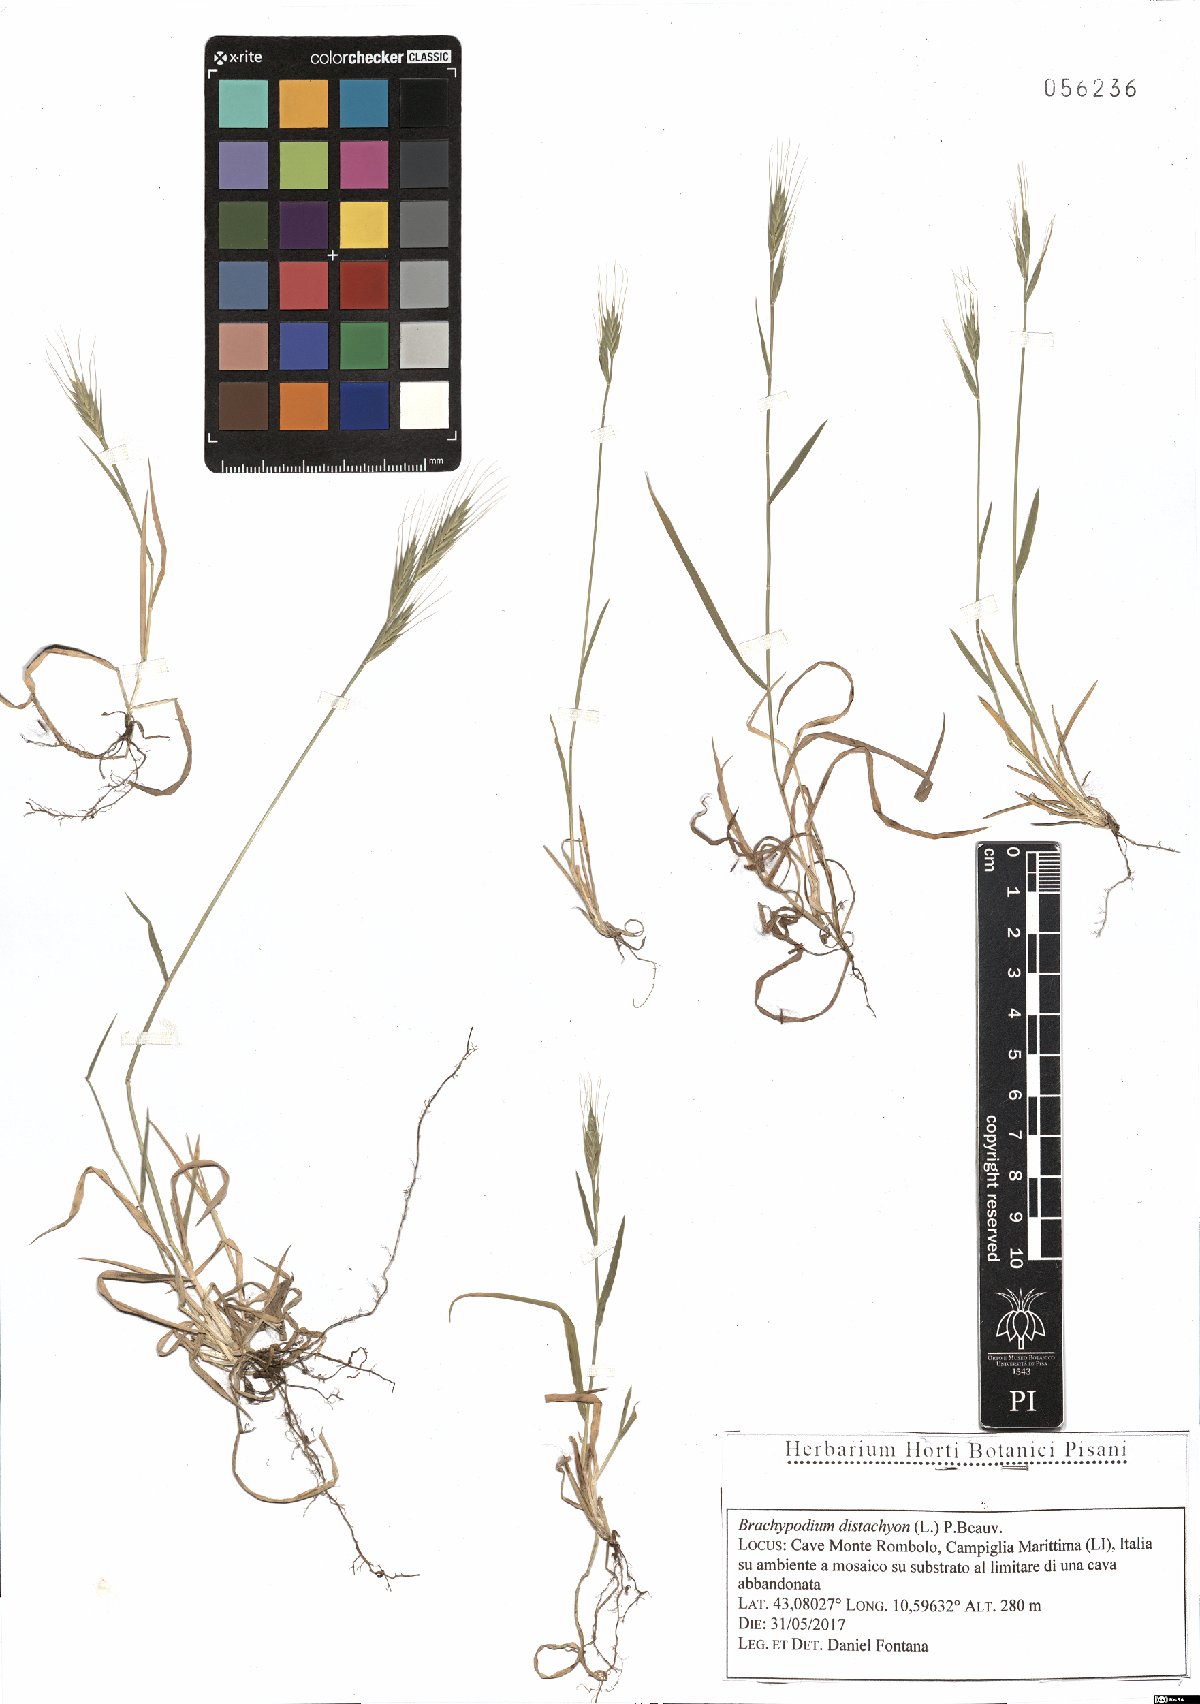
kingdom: Plantae
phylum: Tracheophyta
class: Liliopsida
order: Poales
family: Poaceae
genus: Brachypodium
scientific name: Brachypodium distachyon
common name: Stiff brome
